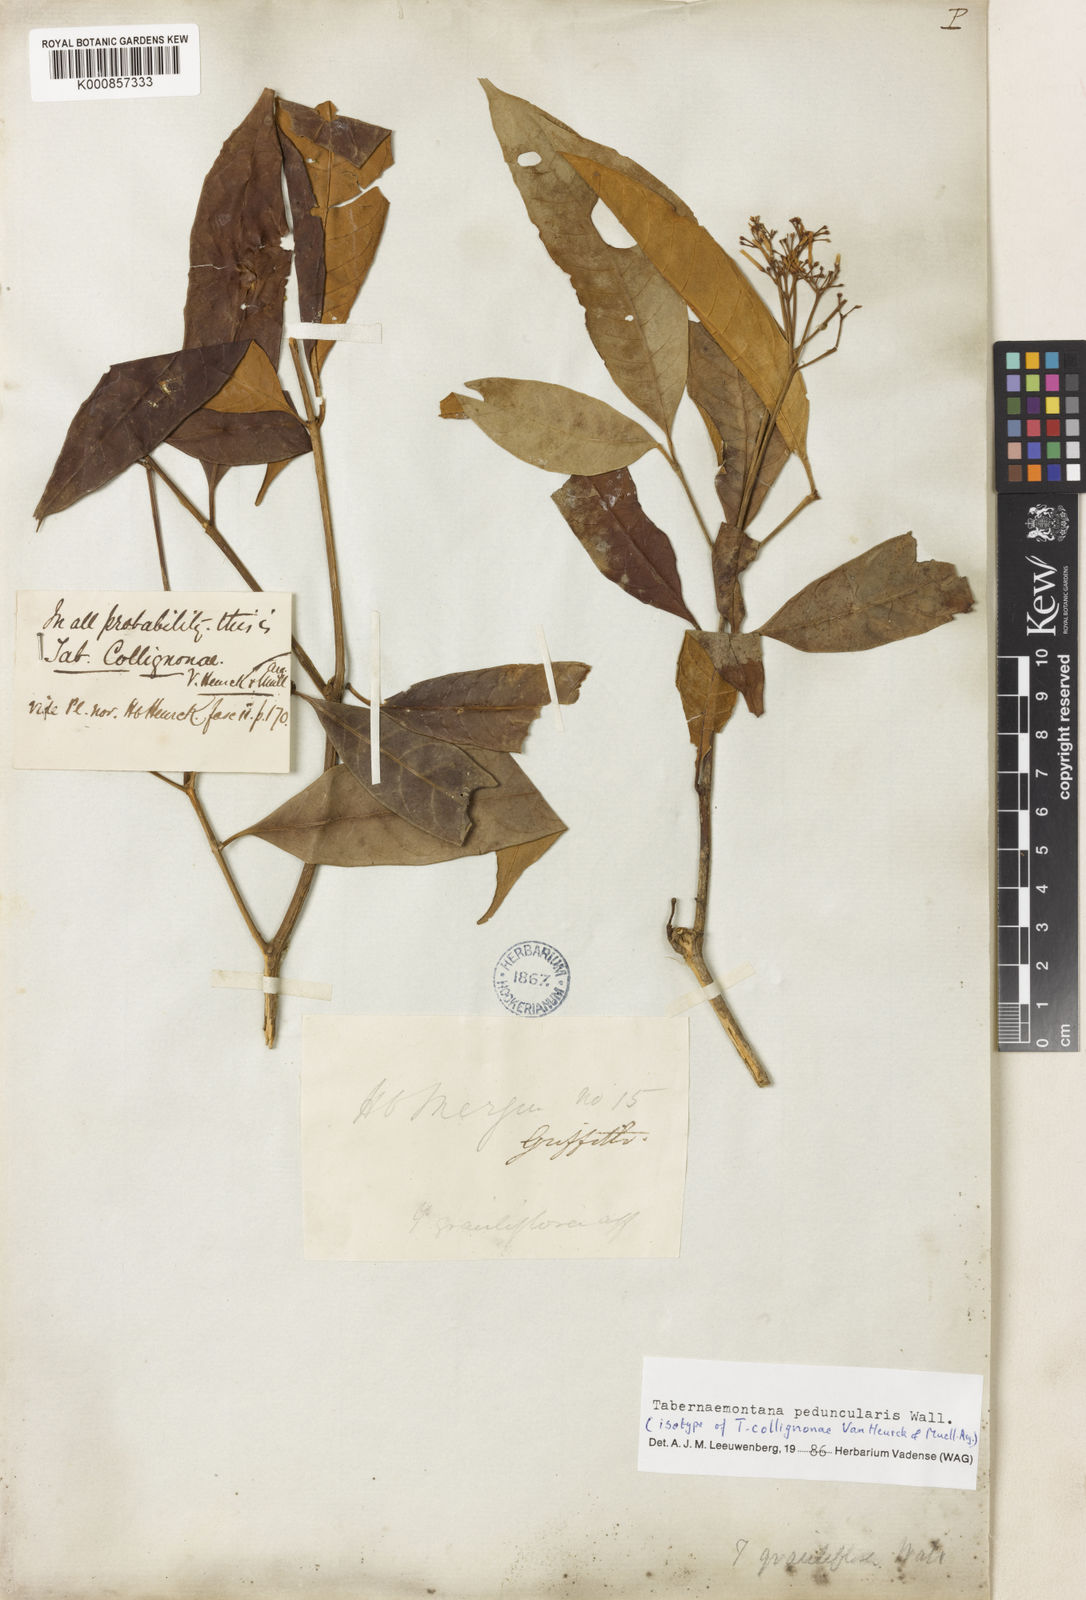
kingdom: Plantae
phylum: Tracheophyta
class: Magnoliopsida
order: Gentianales
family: Apocynaceae
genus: Tabernaemontana
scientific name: Tabernaemontana peduncularis
